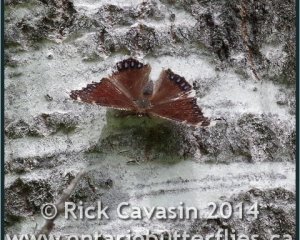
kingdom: Animalia
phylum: Arthropoda
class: Insecta
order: Lepidoptera
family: Nymphalidae
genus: Nymphalis
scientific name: Nymphalis antiopa
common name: Mourning Cloak
